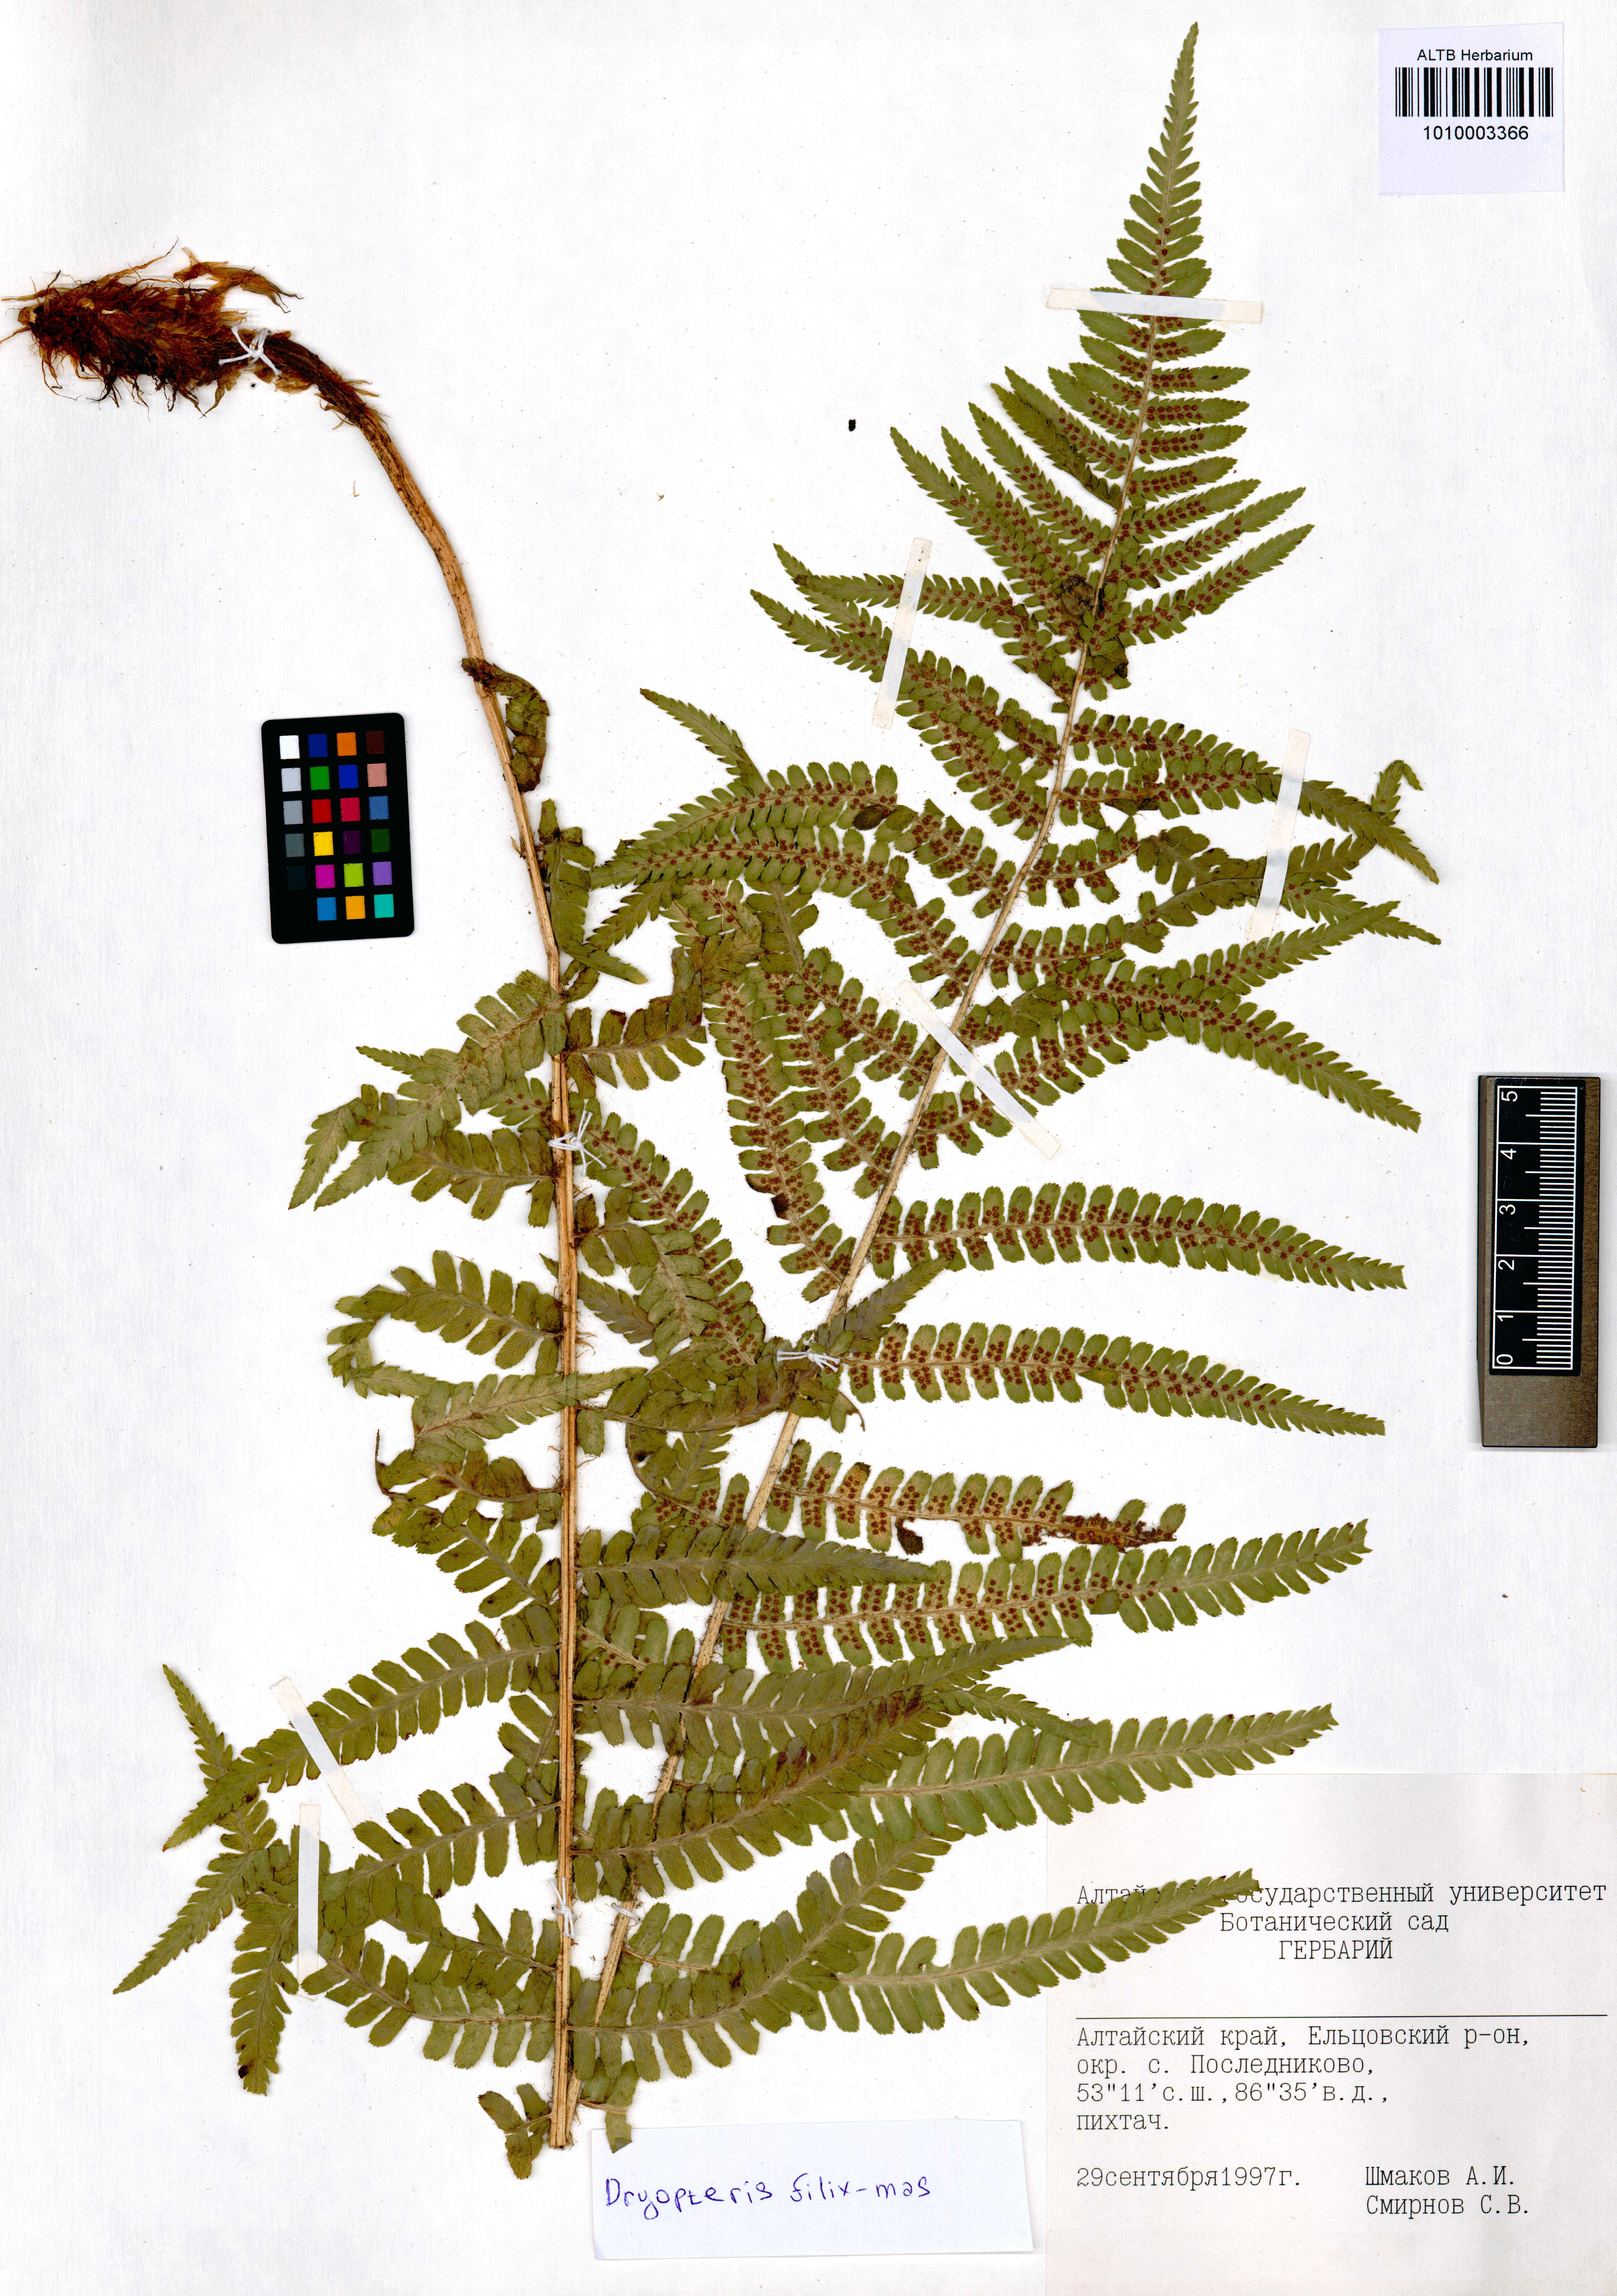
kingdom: Plantae
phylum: Tracheophyta
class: Polypodiopsida
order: Polypodiales
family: Dryopteridaceae
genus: Dryopteris
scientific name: Dryopteris filix-mas
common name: Male fern
